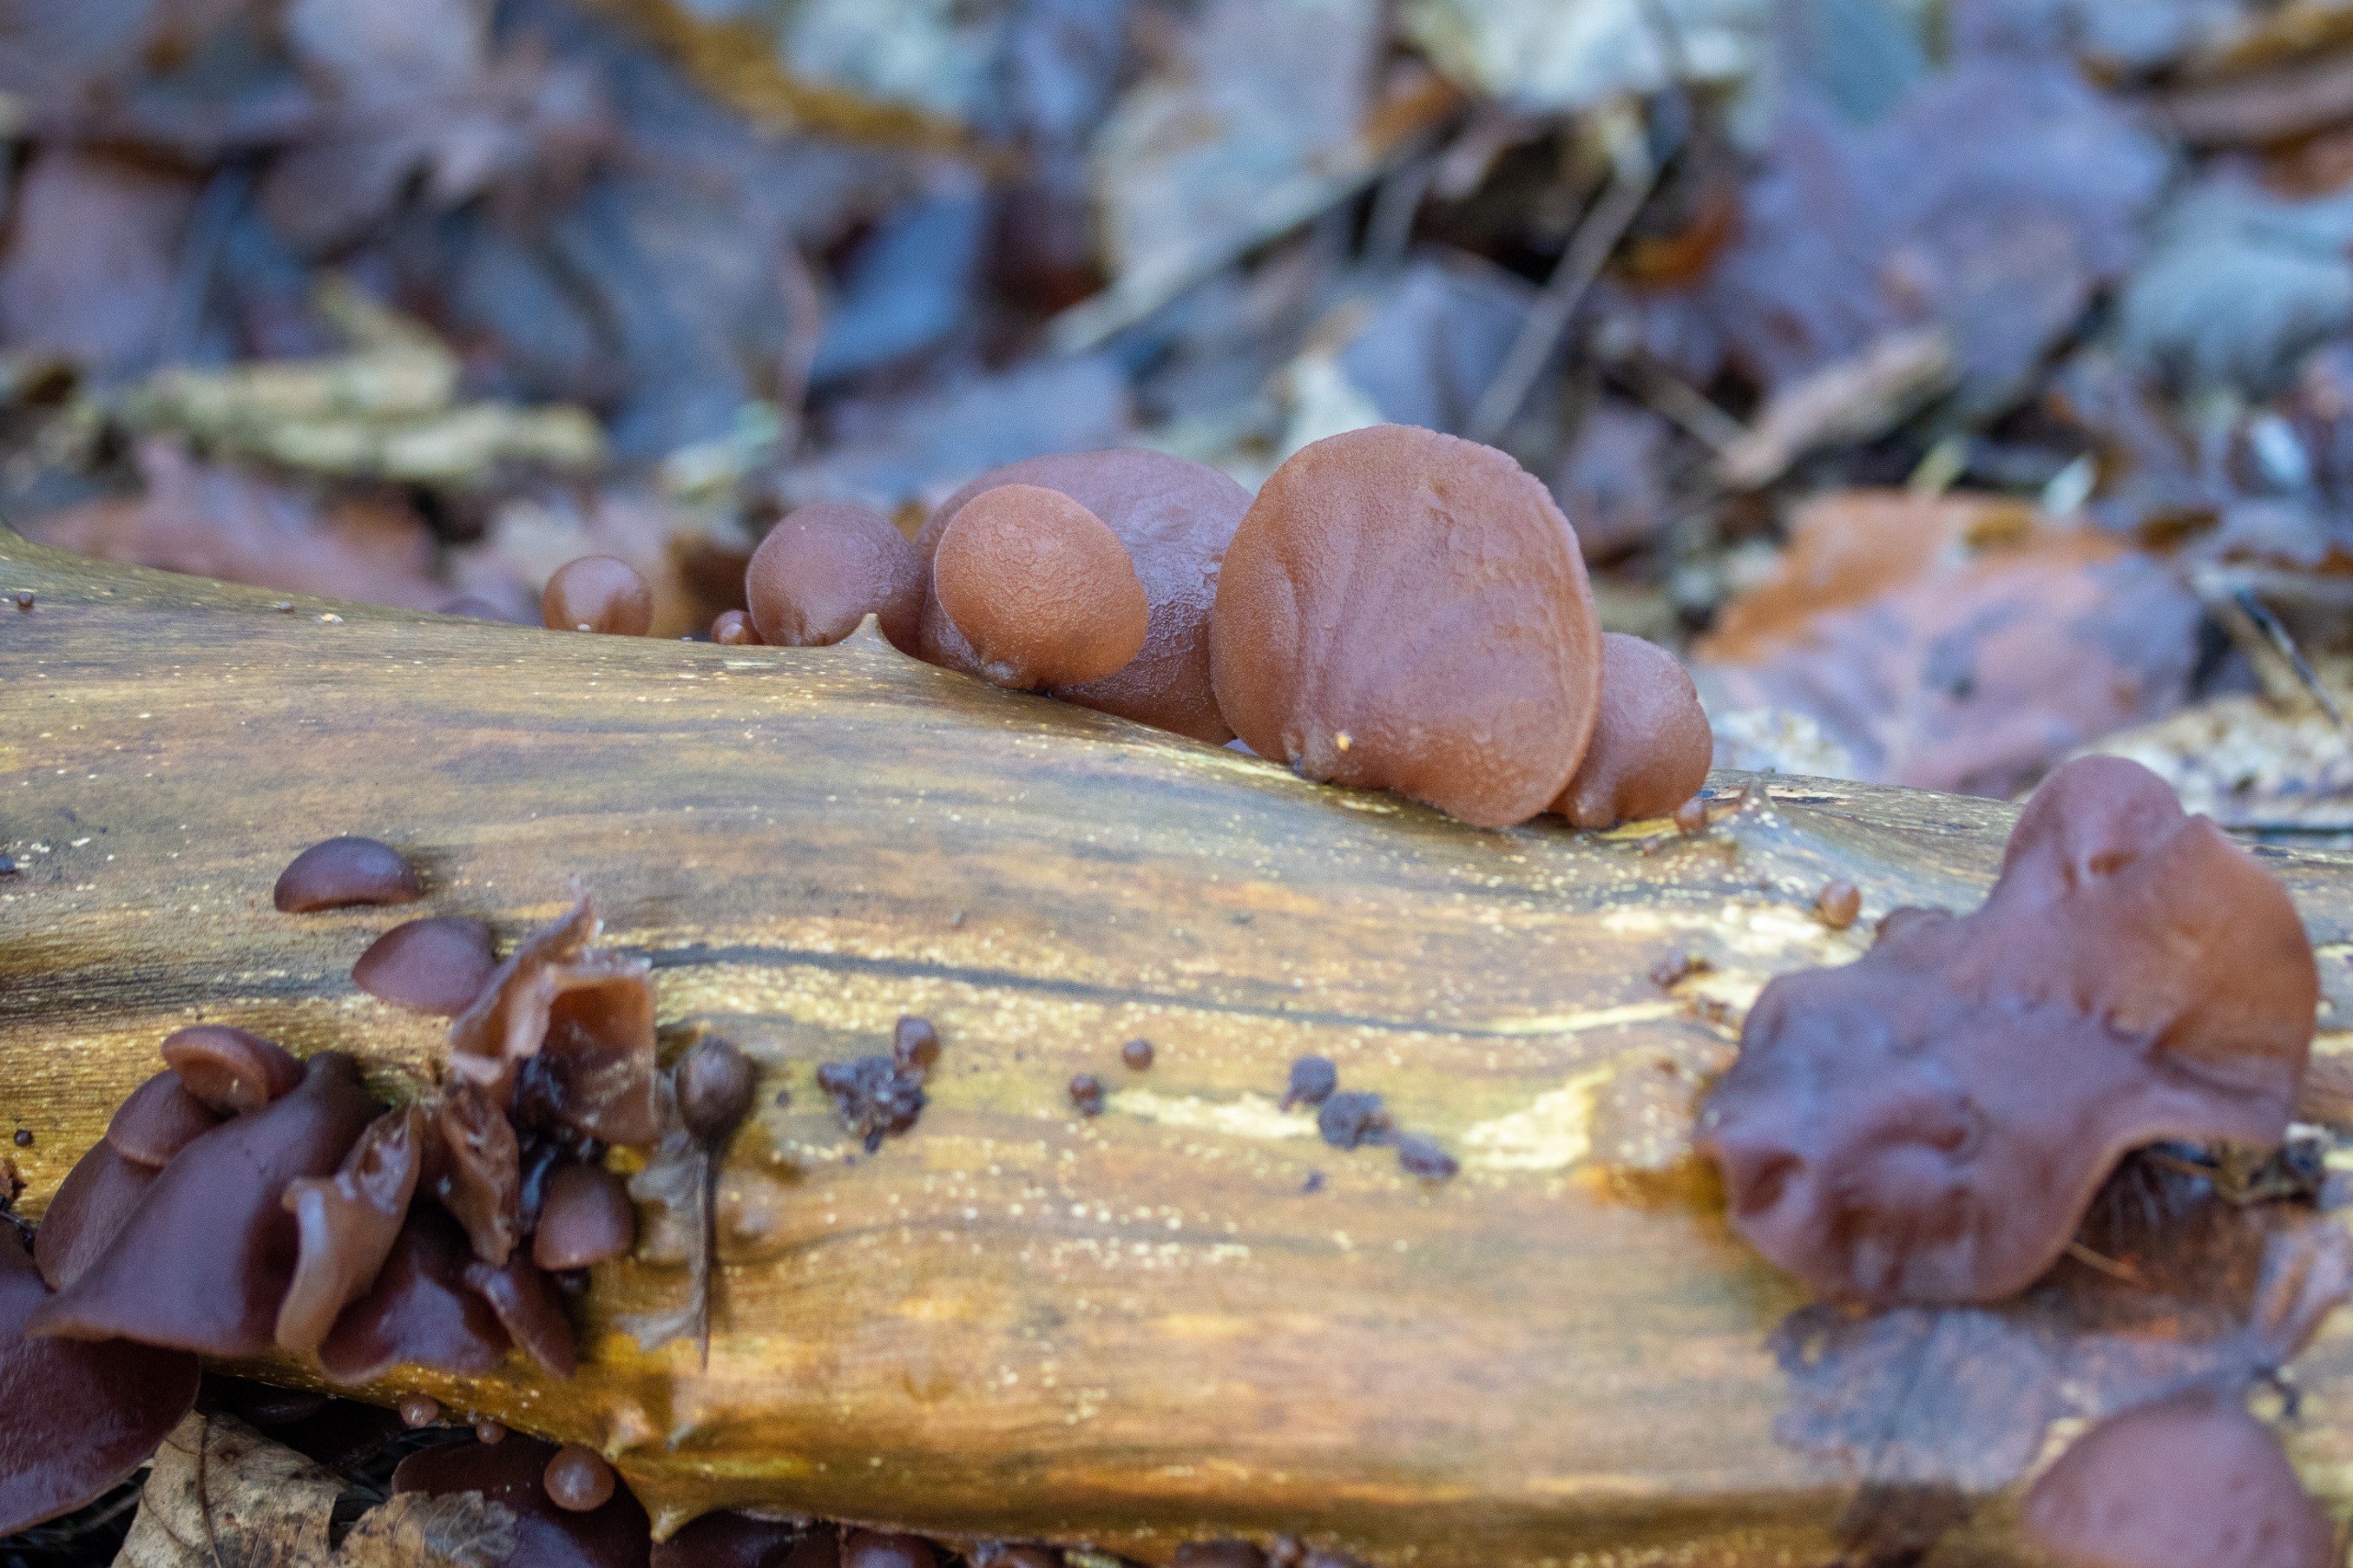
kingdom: Fungi
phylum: Basidiomycota
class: Agaricomycetes
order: Auriculariales
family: Auriculariaceae
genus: Auricularia
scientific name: Auricularia auricula-judae
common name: Almindelig judasøre
